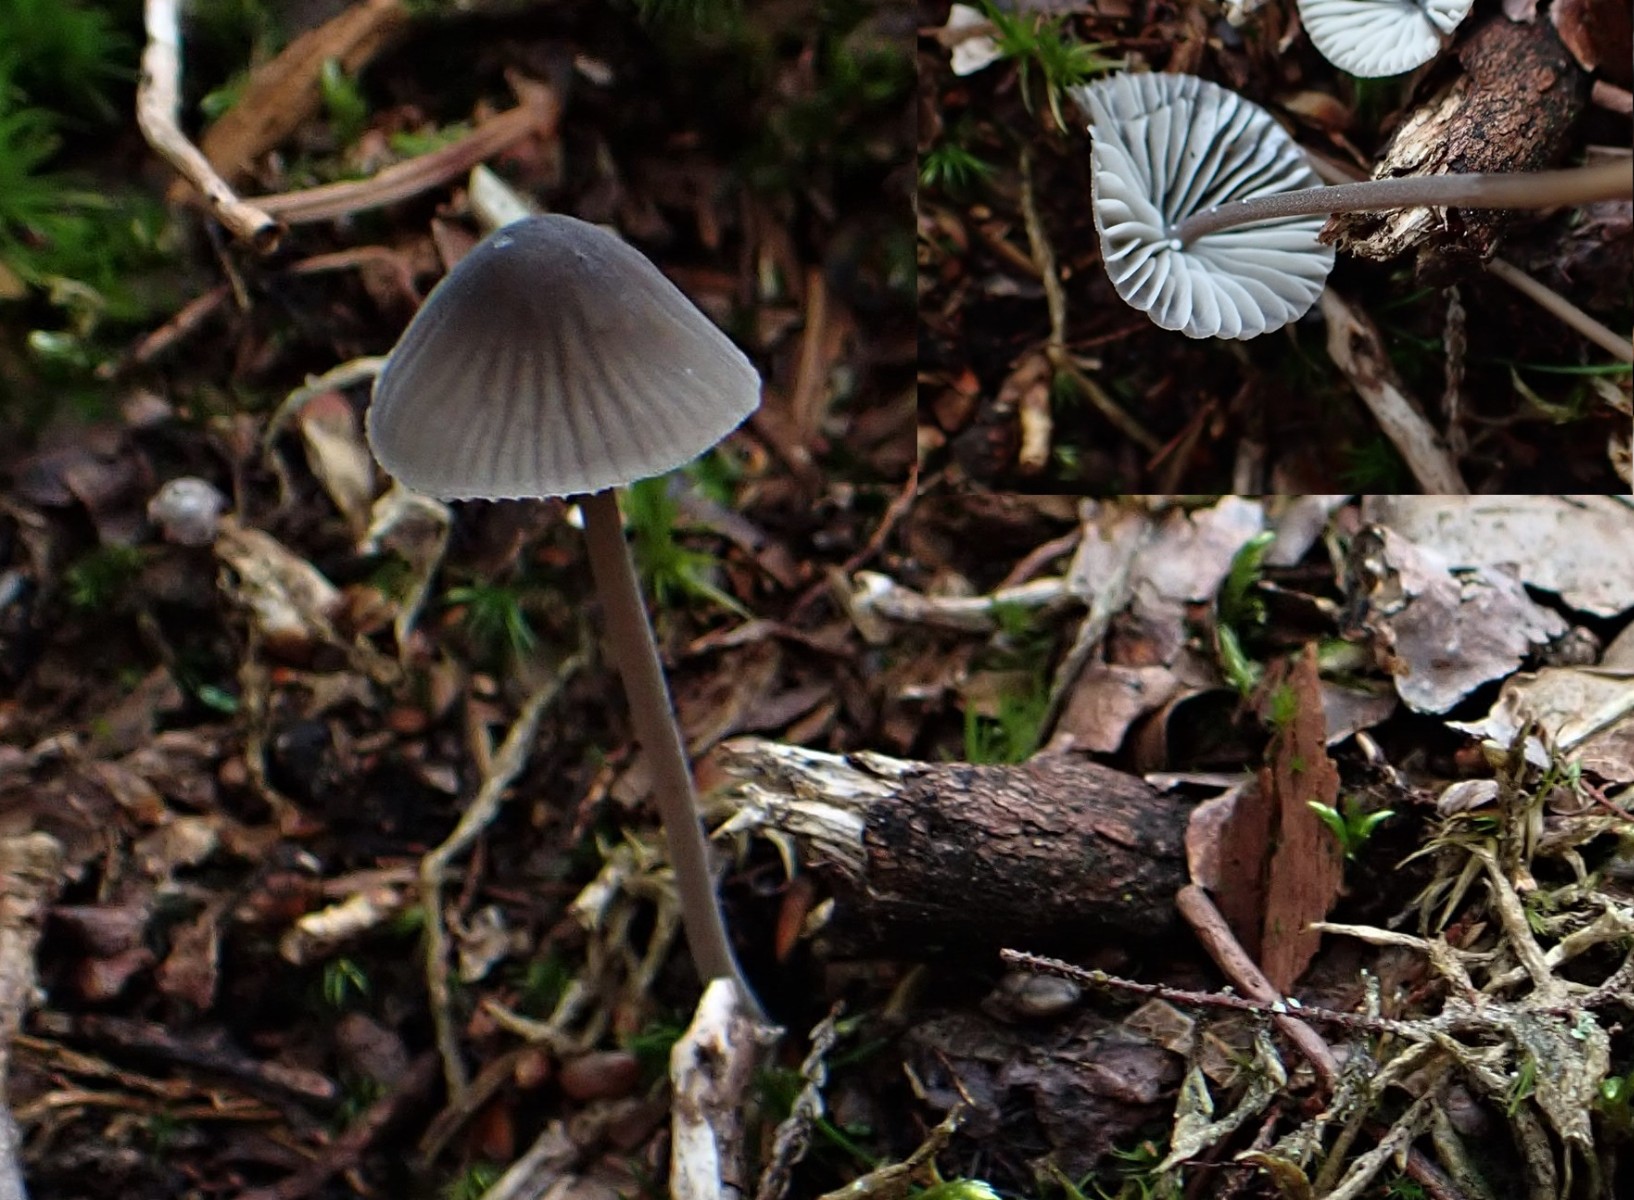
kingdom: Fungi
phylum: Basidiomycota
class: Agaricomycetes
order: Agaricales
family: Mycenaceae
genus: Mycena
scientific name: Mycena galopus
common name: hvidmælket huesvamp
